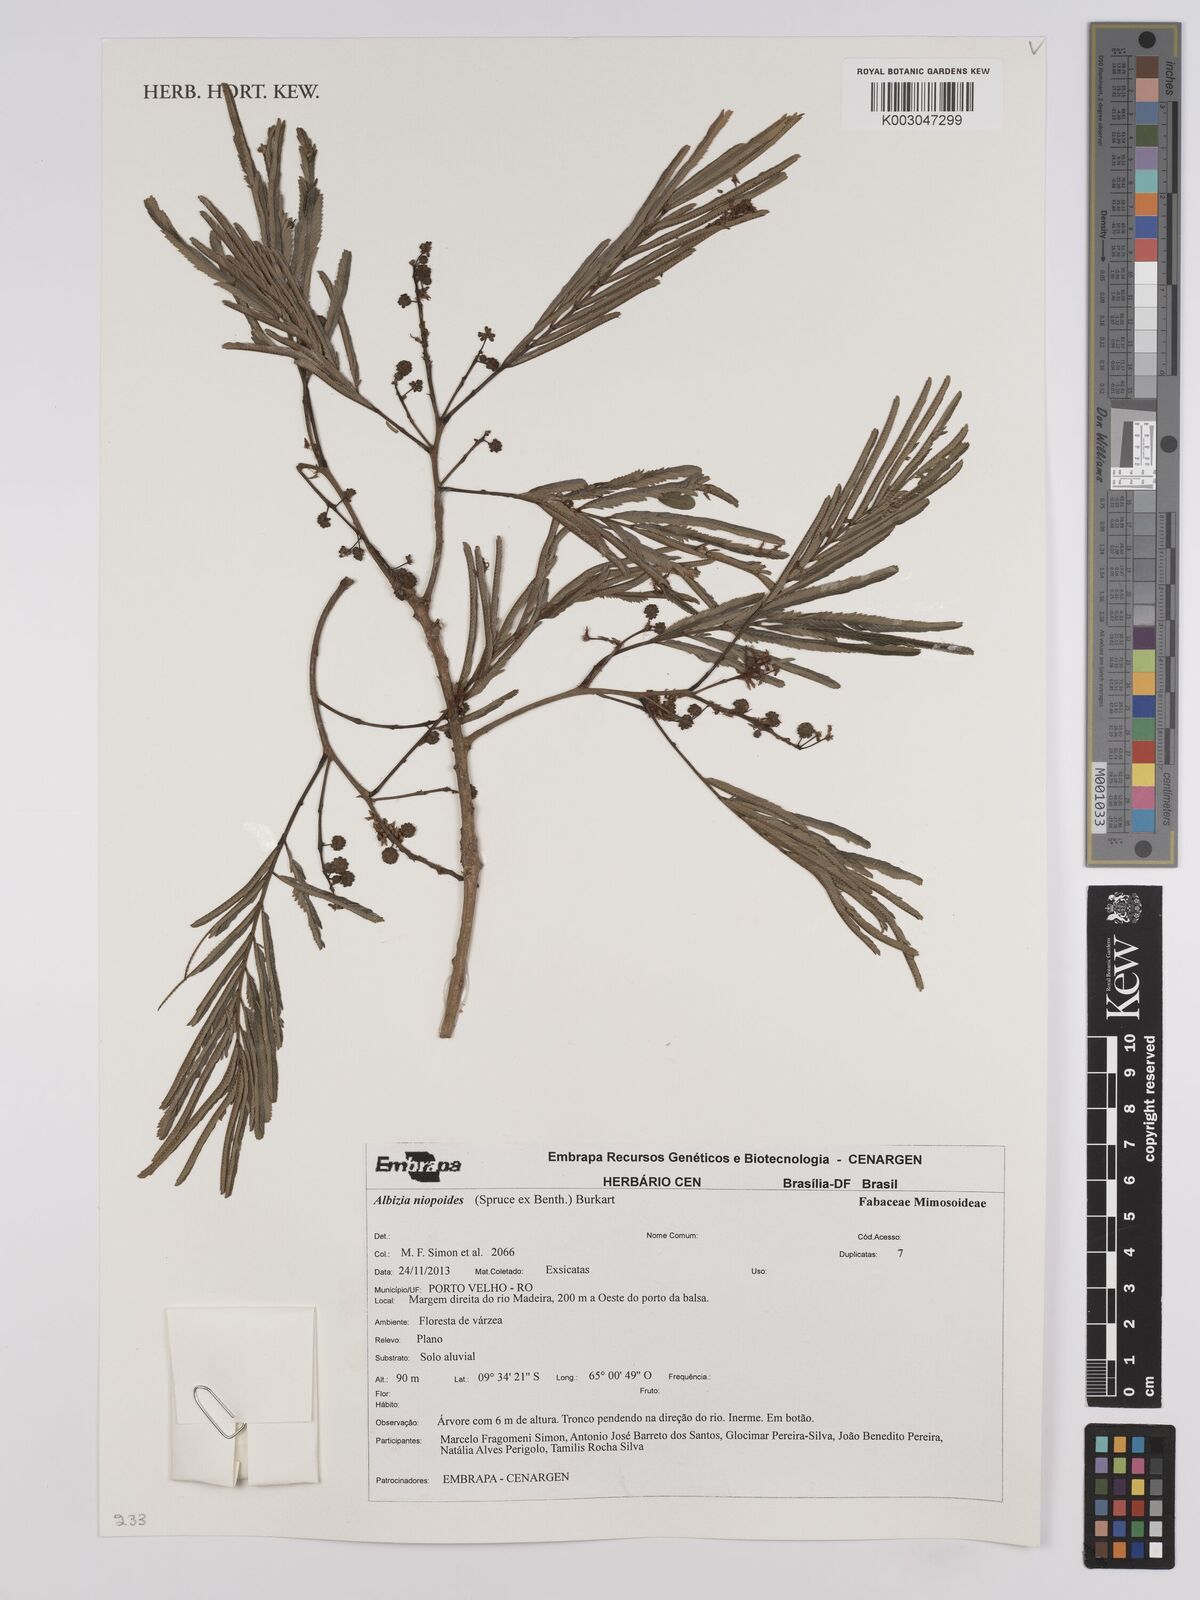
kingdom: Plantae
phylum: Tracheophyta
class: Magnoliopsida
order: Fabales
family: Fabaceae
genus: Albizia
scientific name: Albizia niopoides
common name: Silk tree
